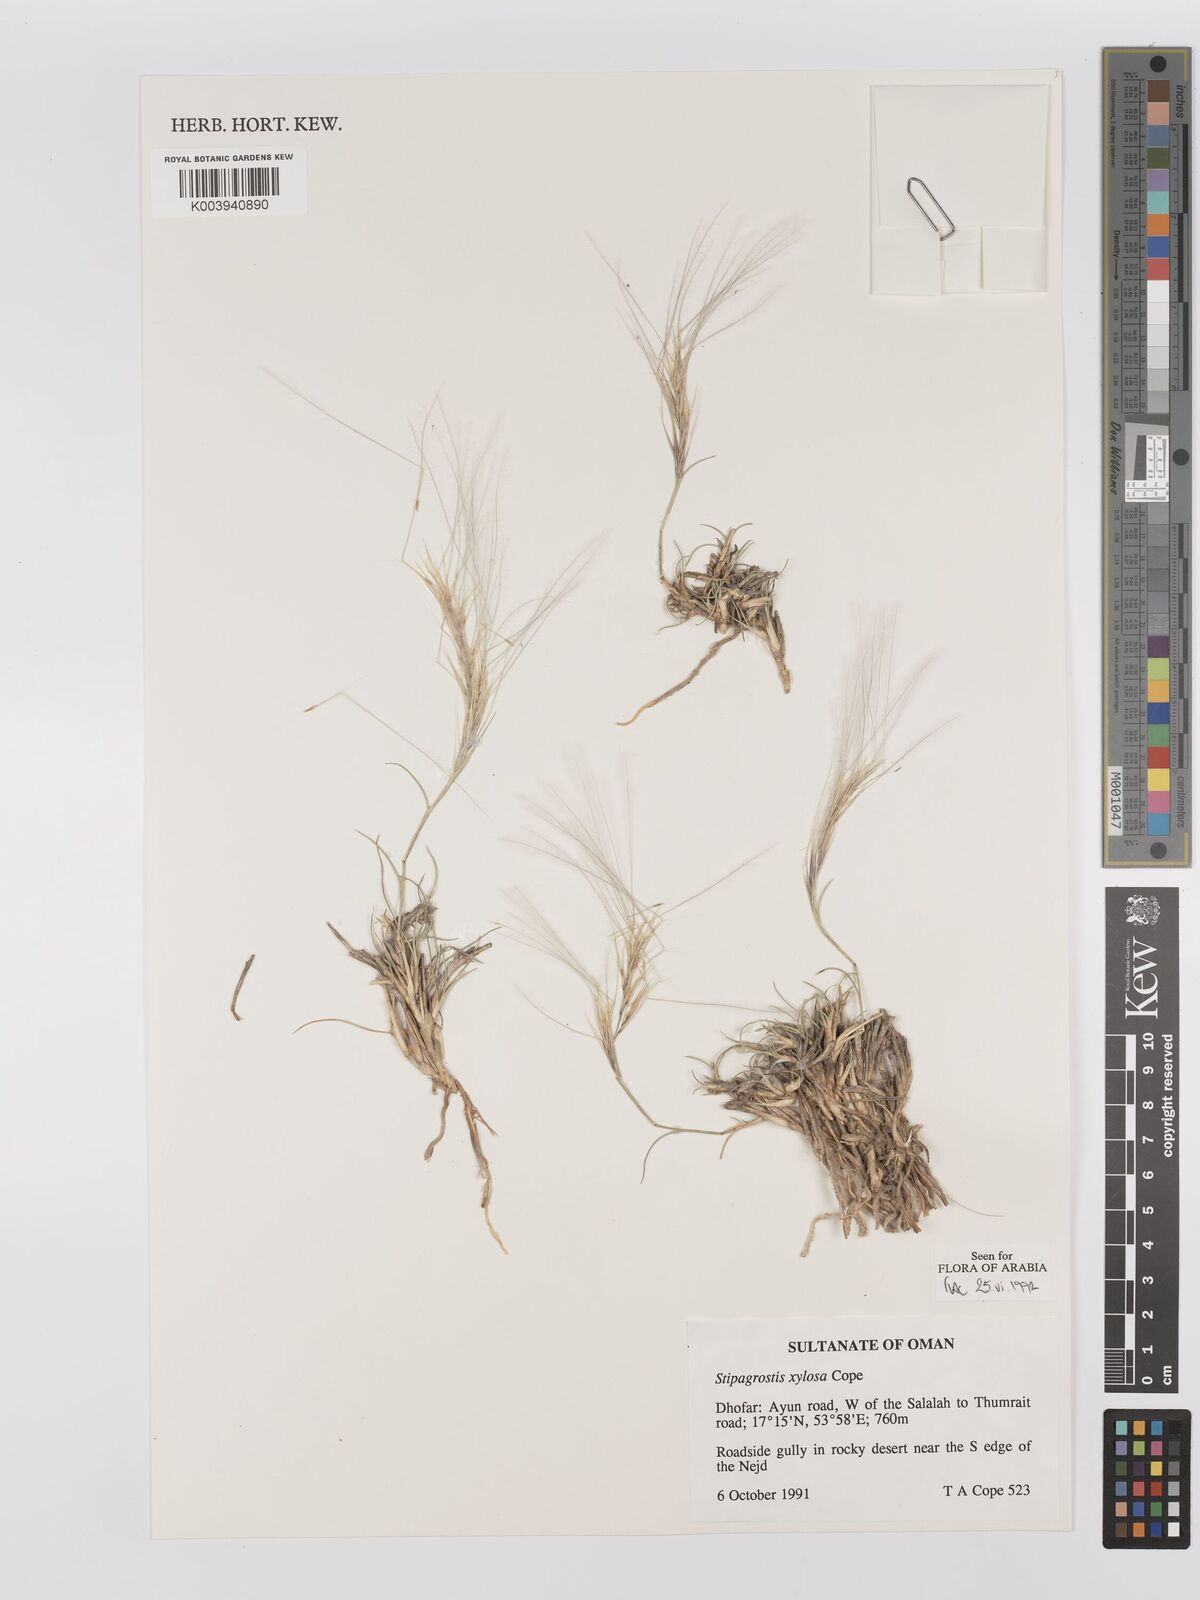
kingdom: Plantae
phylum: Tracheophyta
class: Liliopsida
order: Poales
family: Poaceae
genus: Stipagrostis
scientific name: Stipagrostis xylosa
